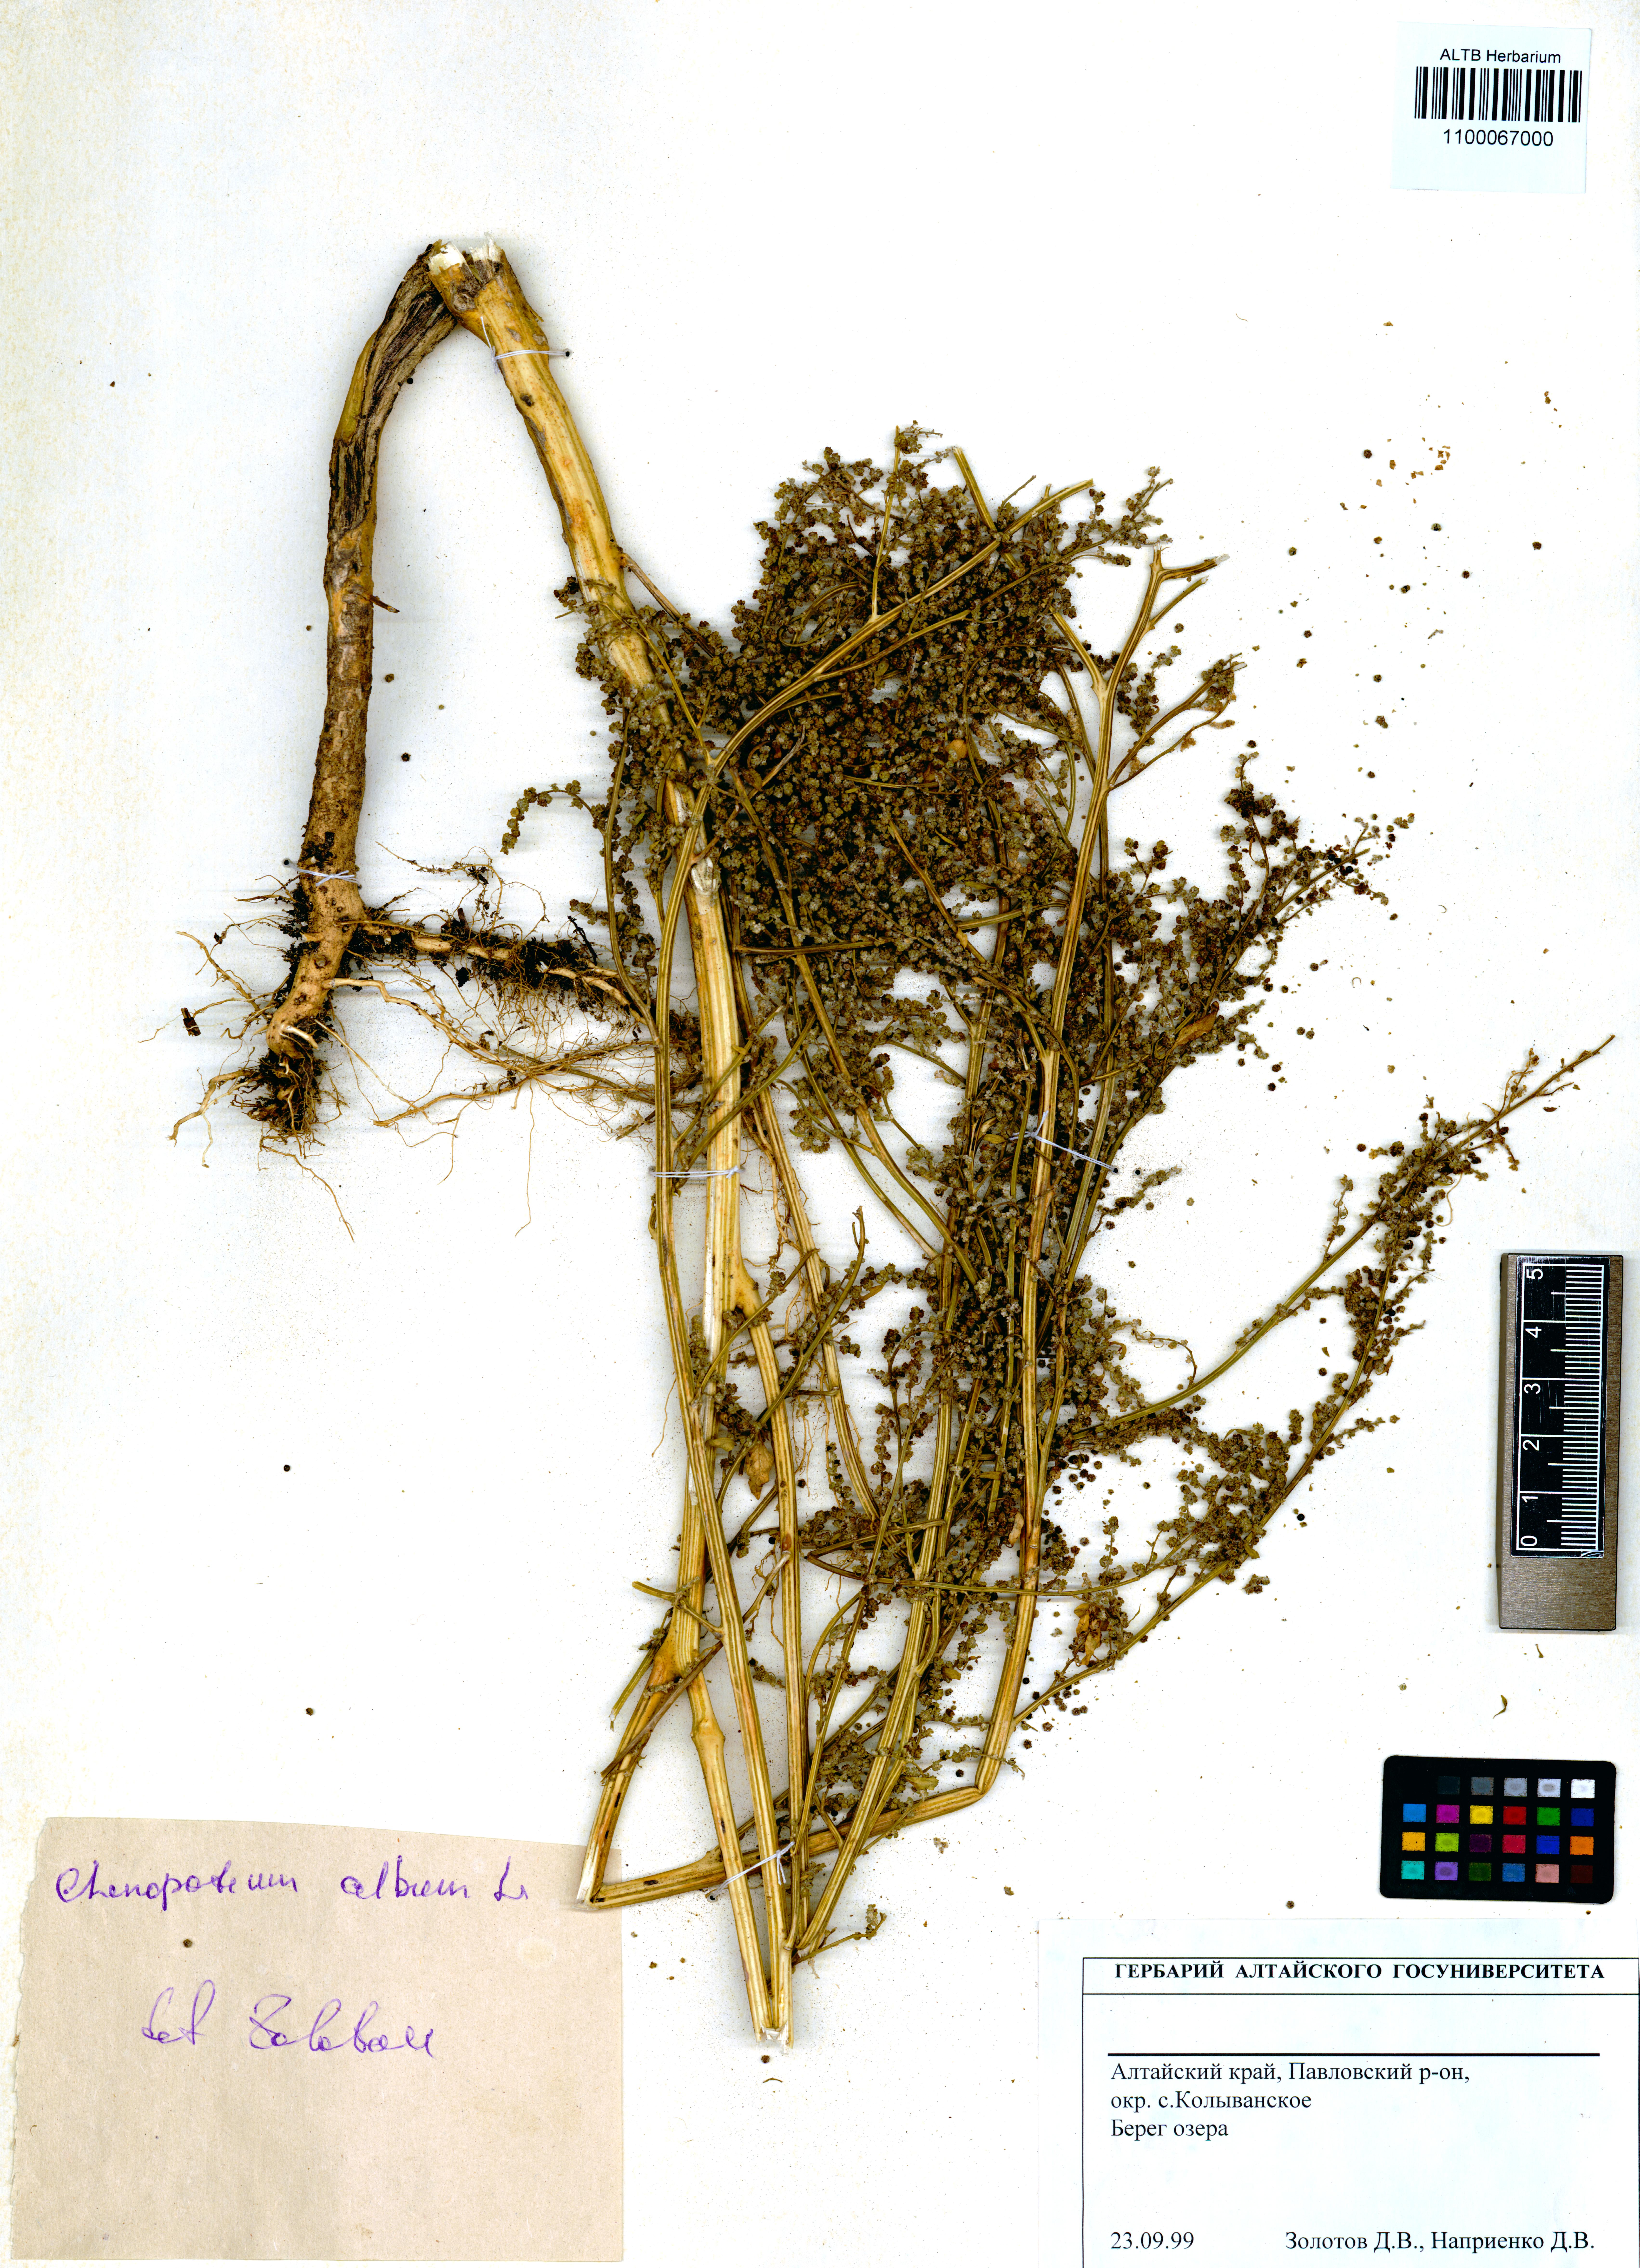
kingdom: Plantae
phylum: Tracheophyta
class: Magnoliopsida
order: Caryophyllales
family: Amaranthaceae
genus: Chenopodium
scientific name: Chenopodium album
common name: Fat-hen
